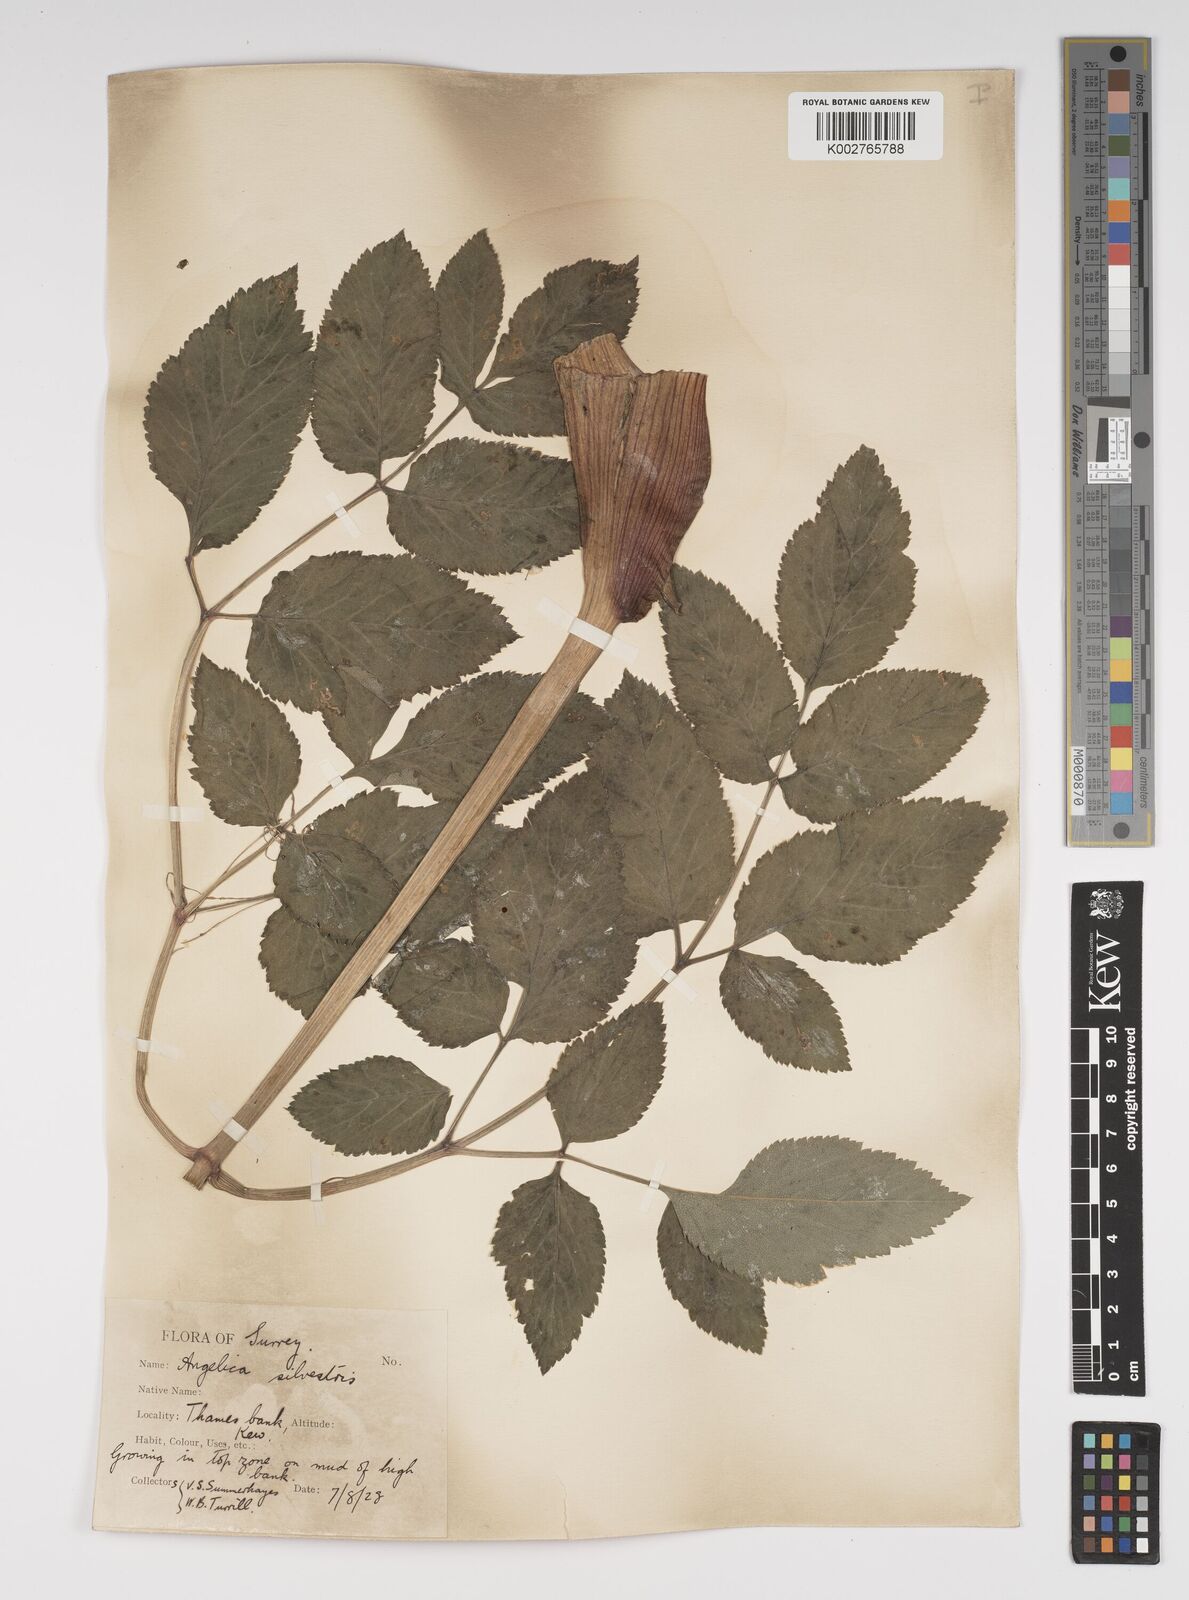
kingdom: Plantae
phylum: Tracheophyta
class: Magnoliopsida
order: Apiales
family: Apiaceae
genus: Angelica
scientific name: Angelica sylvestris
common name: Wild angelica
